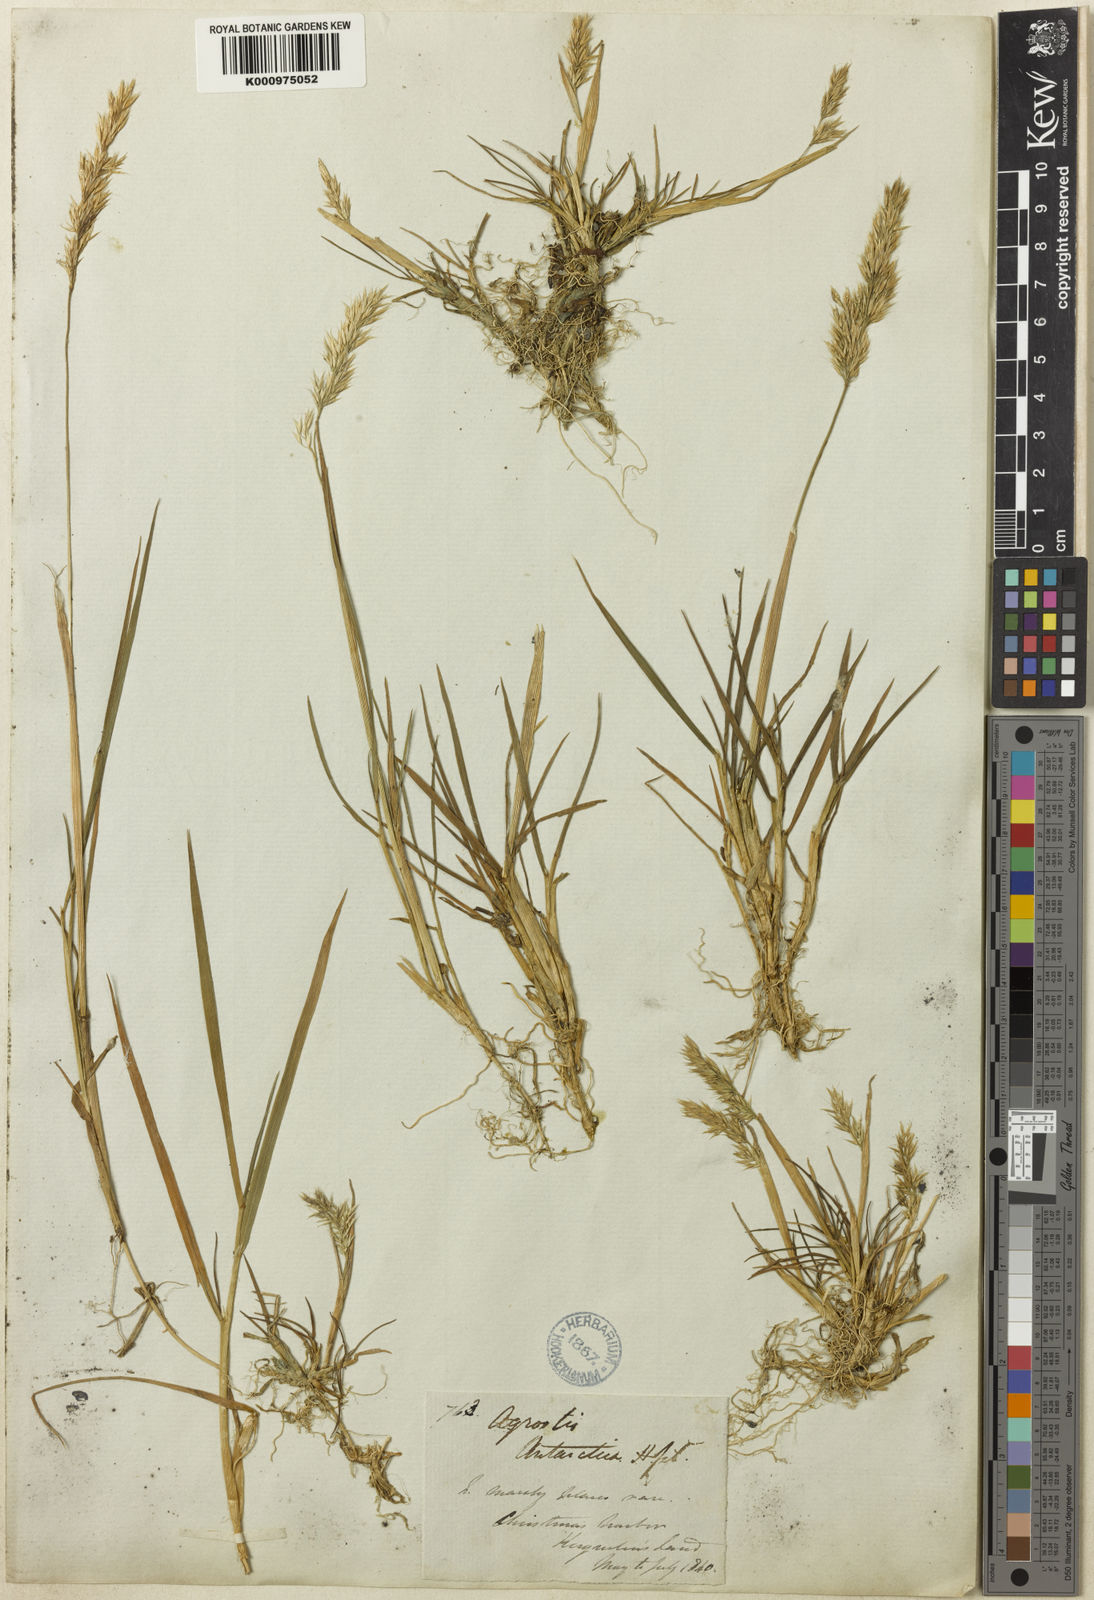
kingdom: Plantae
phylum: Tracheophyta
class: Liliopsida
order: Poales
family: Poaceae
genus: Polypogon
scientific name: Polypogon magellanicus
